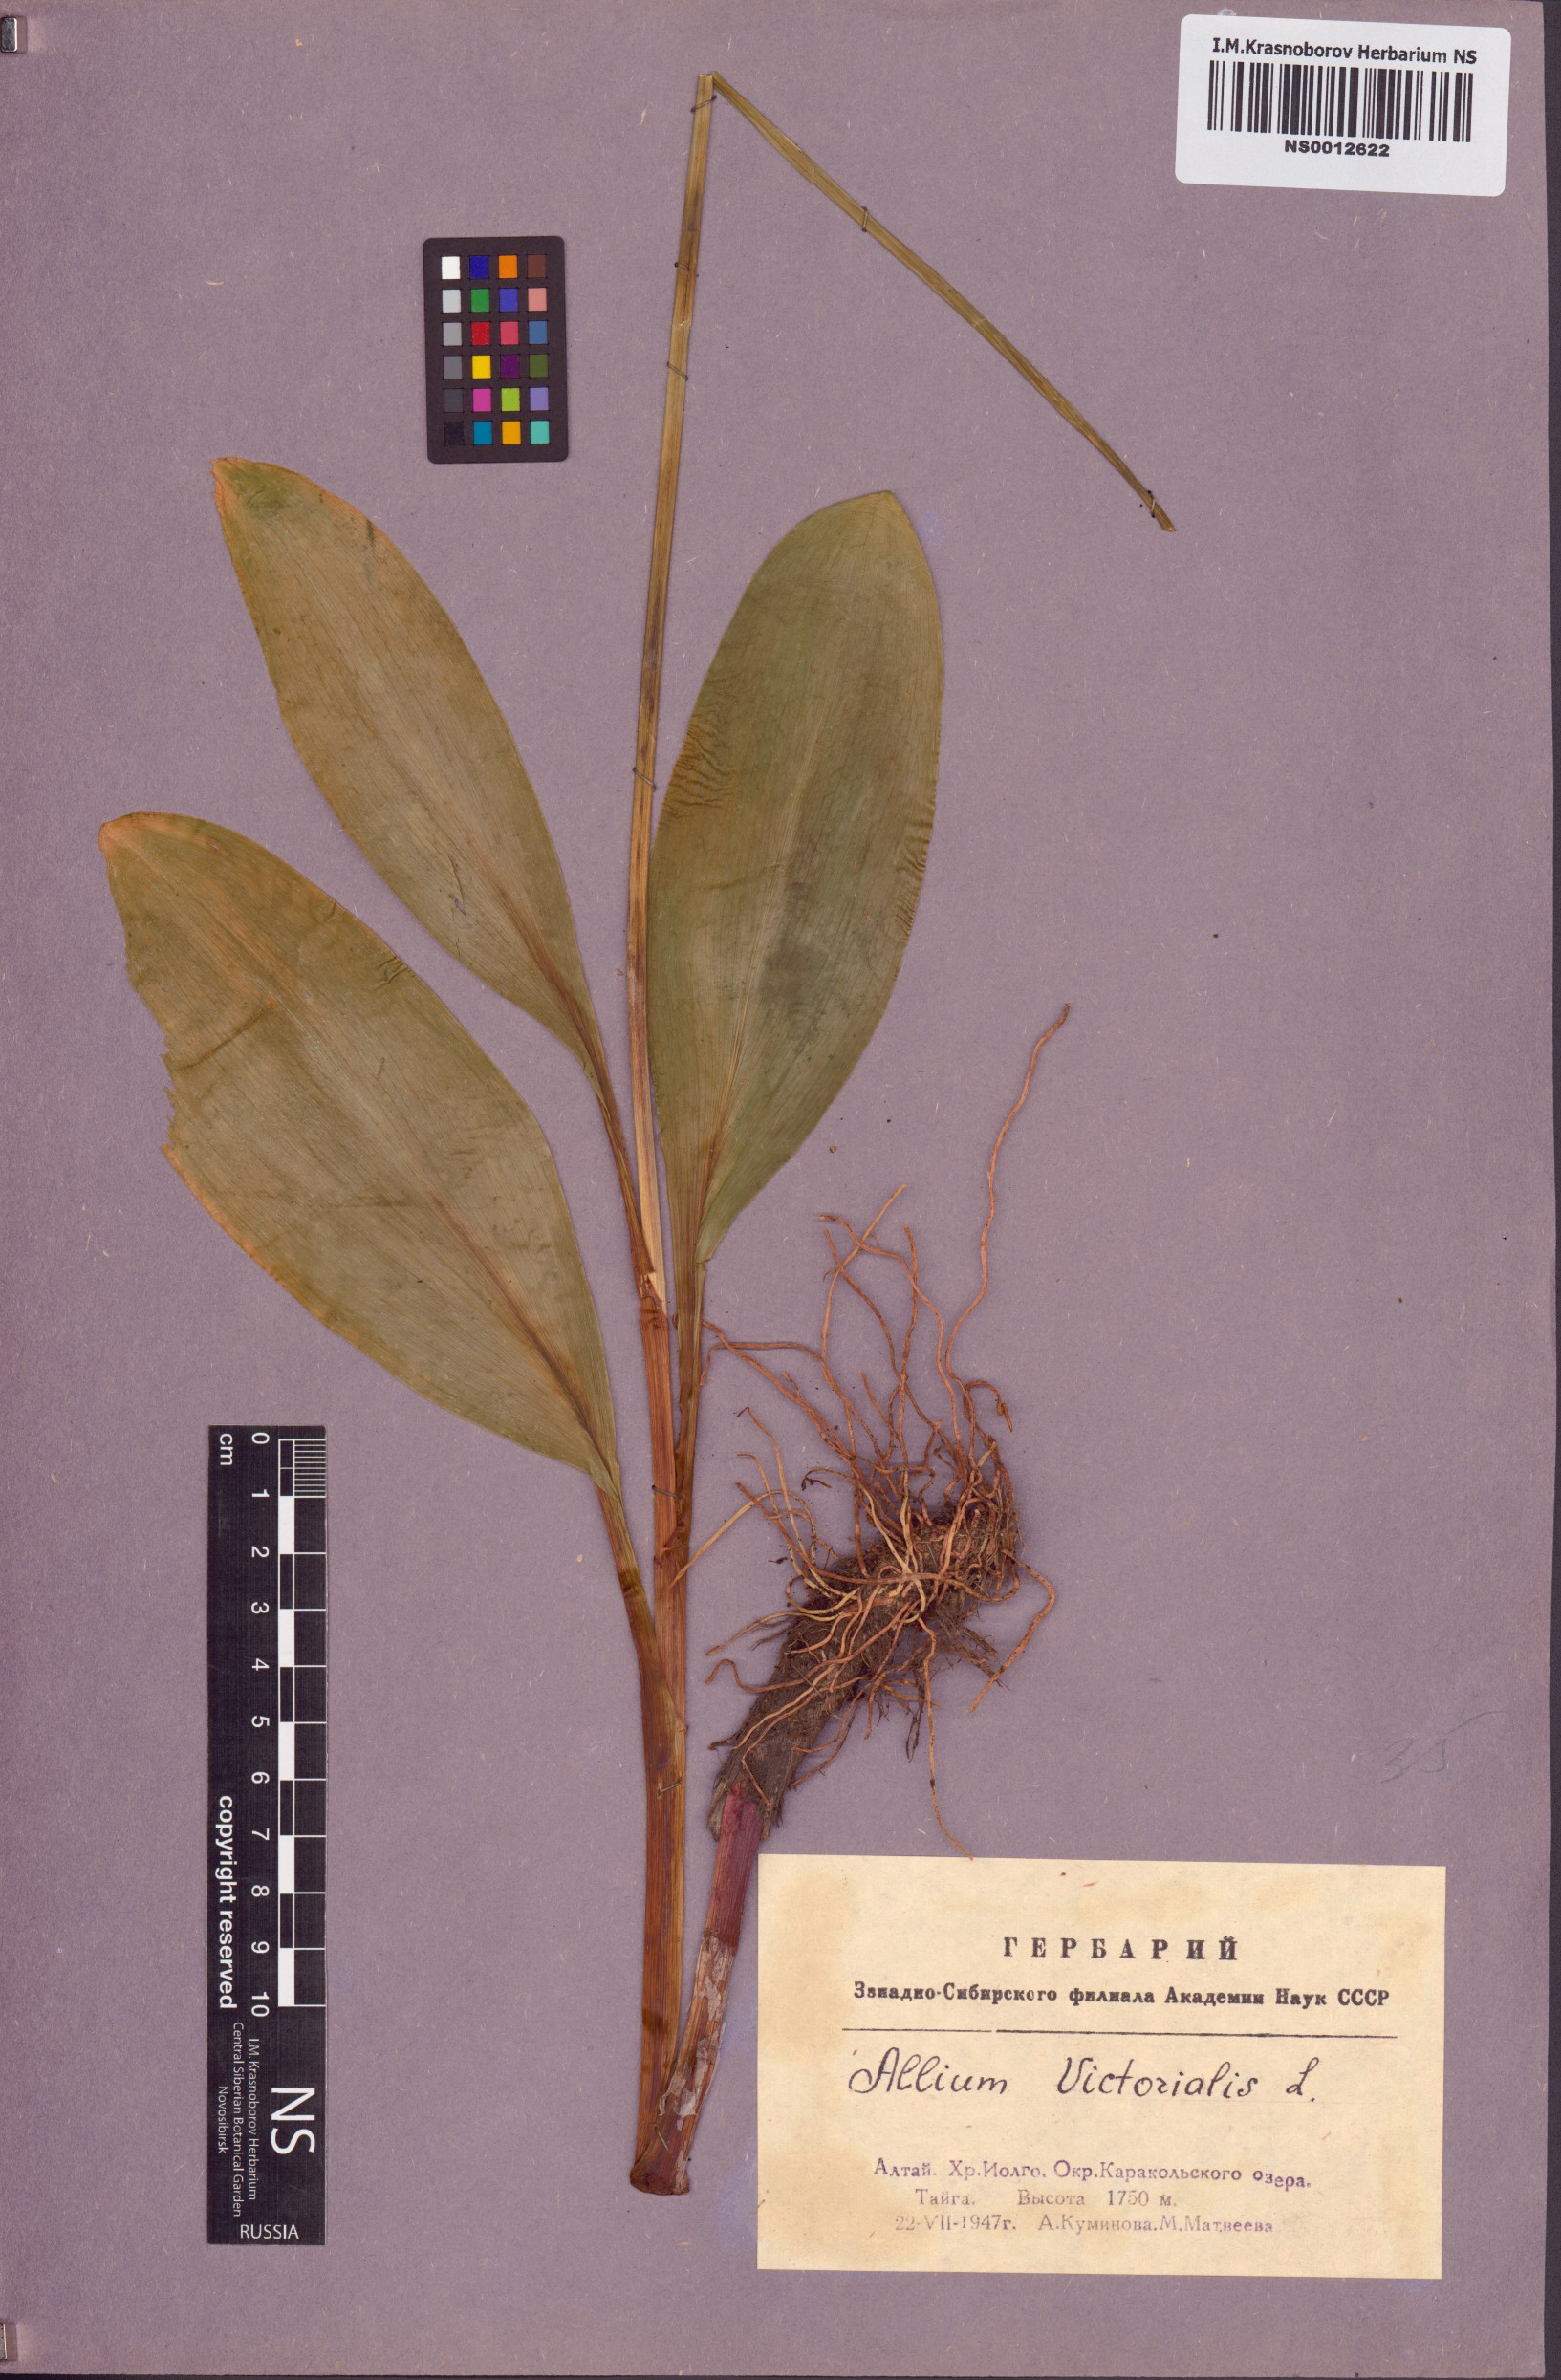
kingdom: Plantae
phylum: Tracheophyta
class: Liliopsida
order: Asparagales
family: Amaryllidaceae
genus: Allium
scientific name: Allium microdictyon
